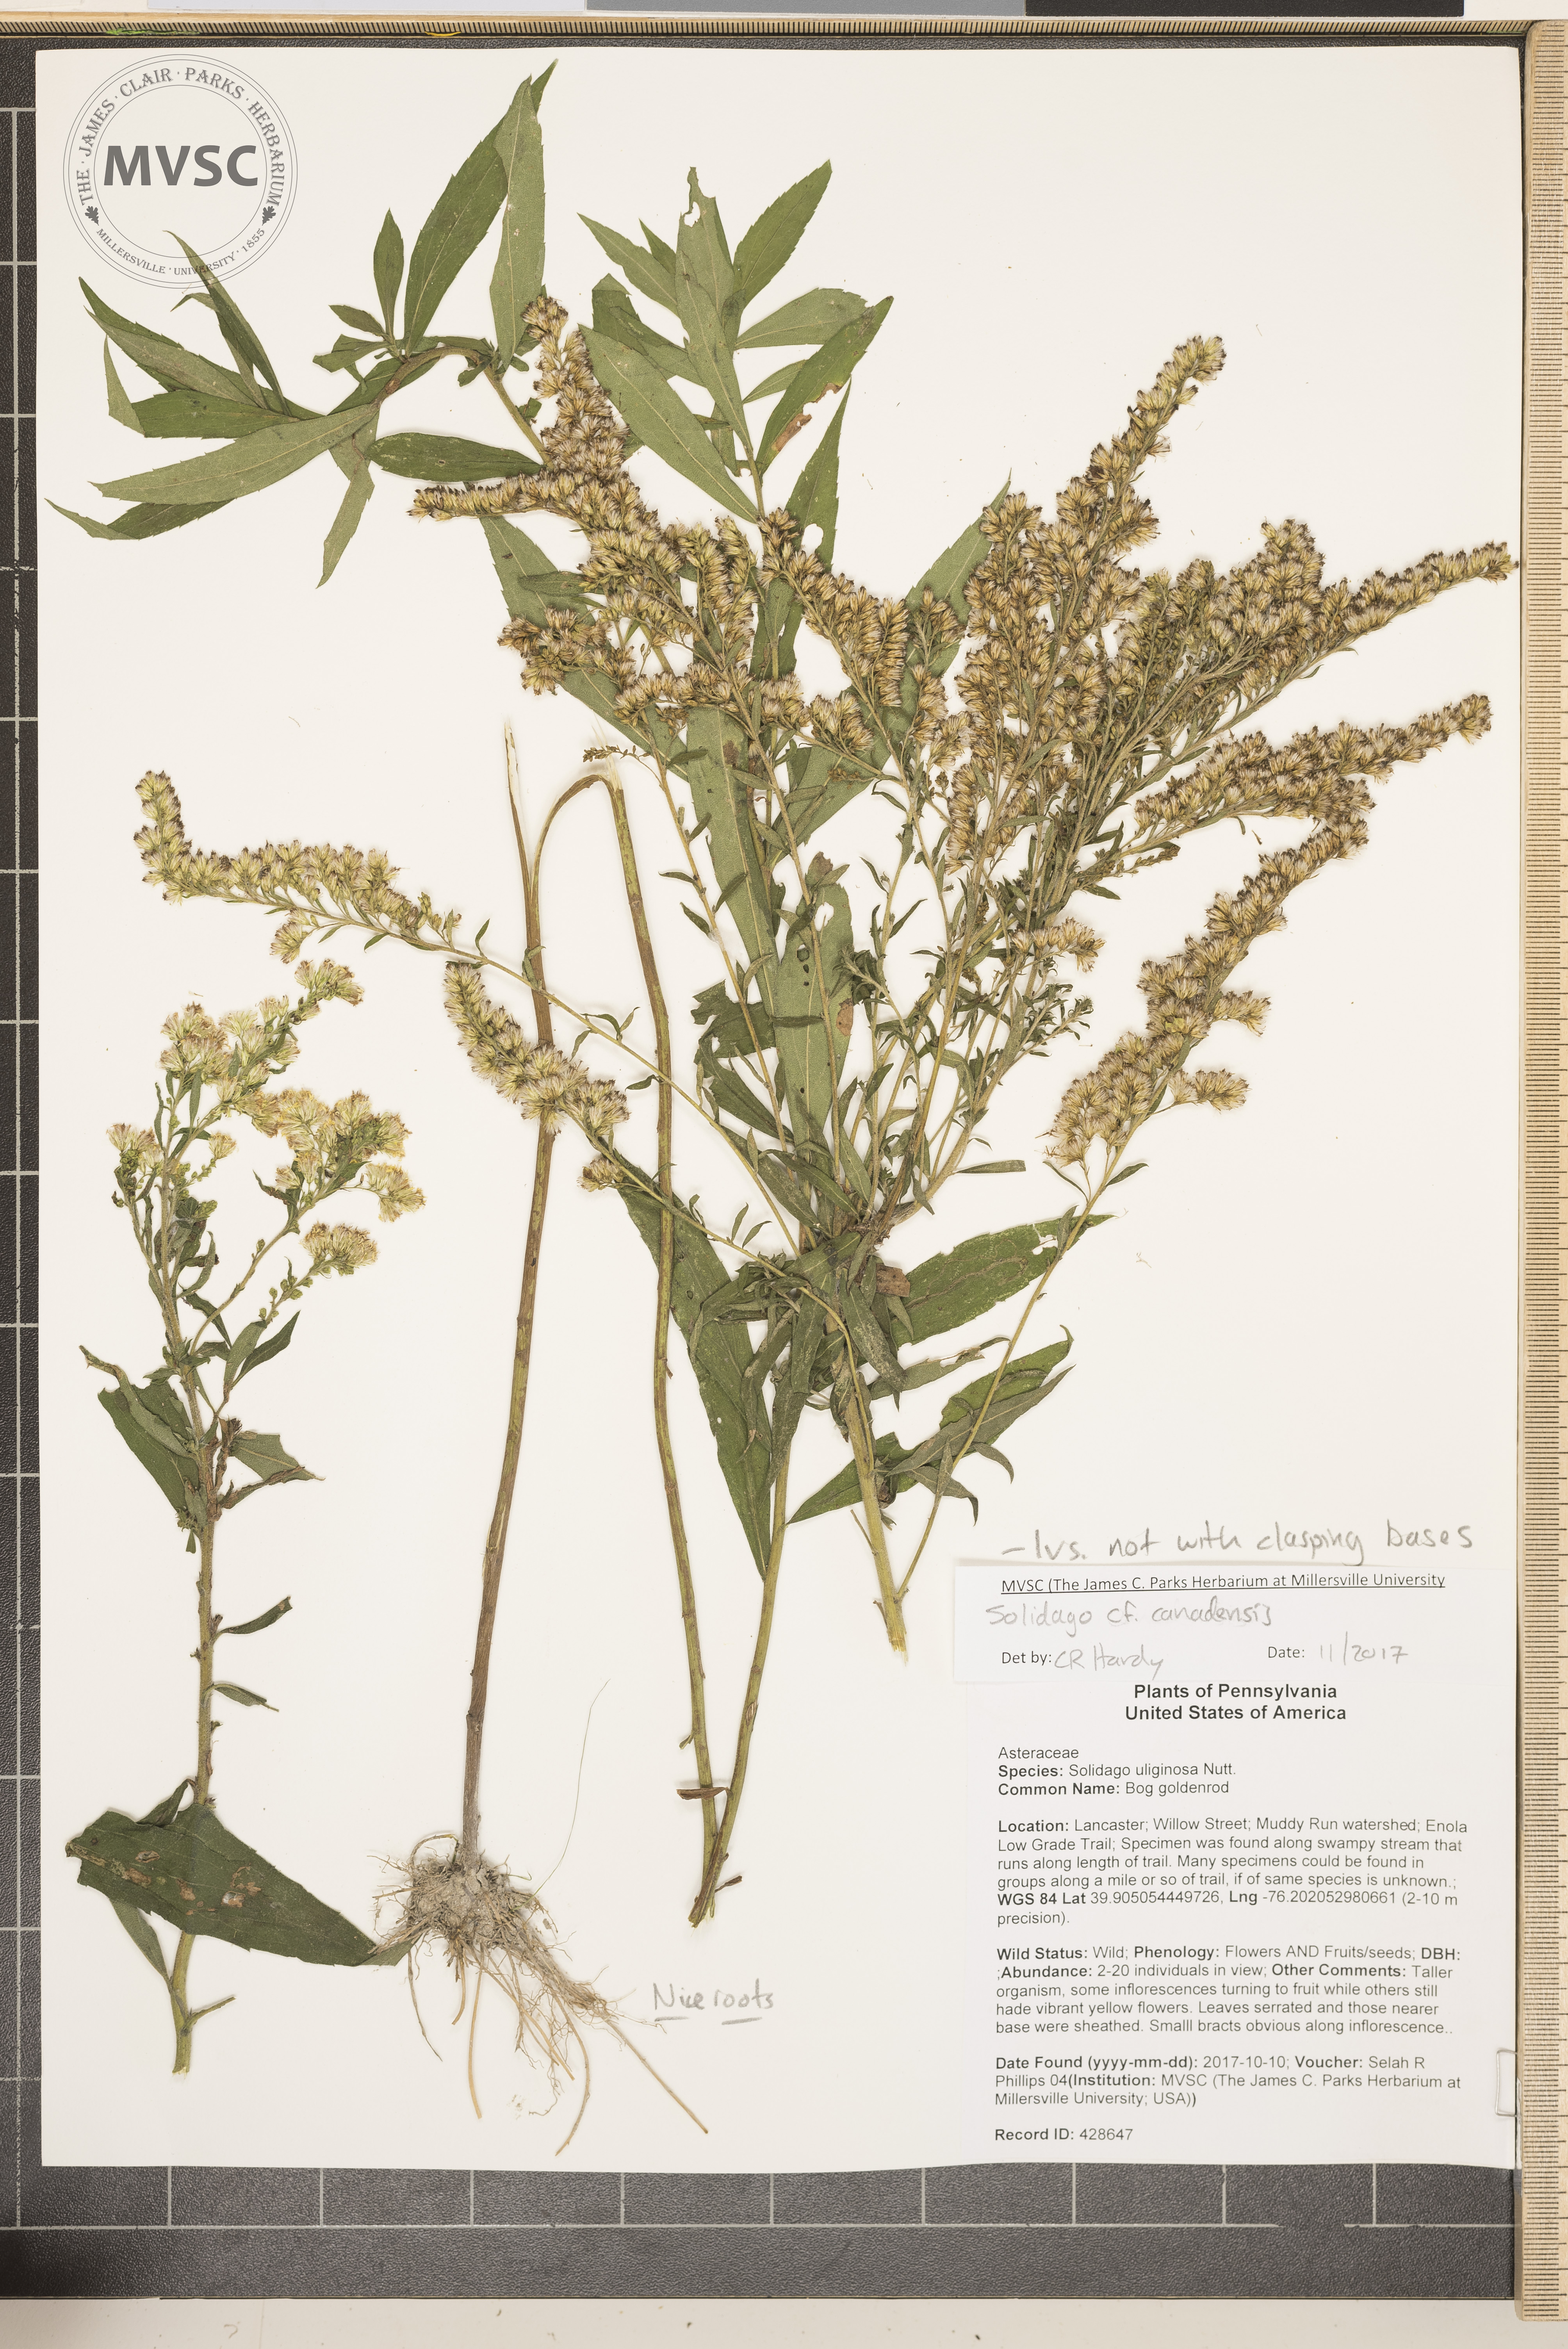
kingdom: Plantae
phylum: Tracheophyta
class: Magnoliopsida
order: Asterales
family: Asteraceae
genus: Solidago
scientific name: Solidago altissima
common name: Goldenrod
